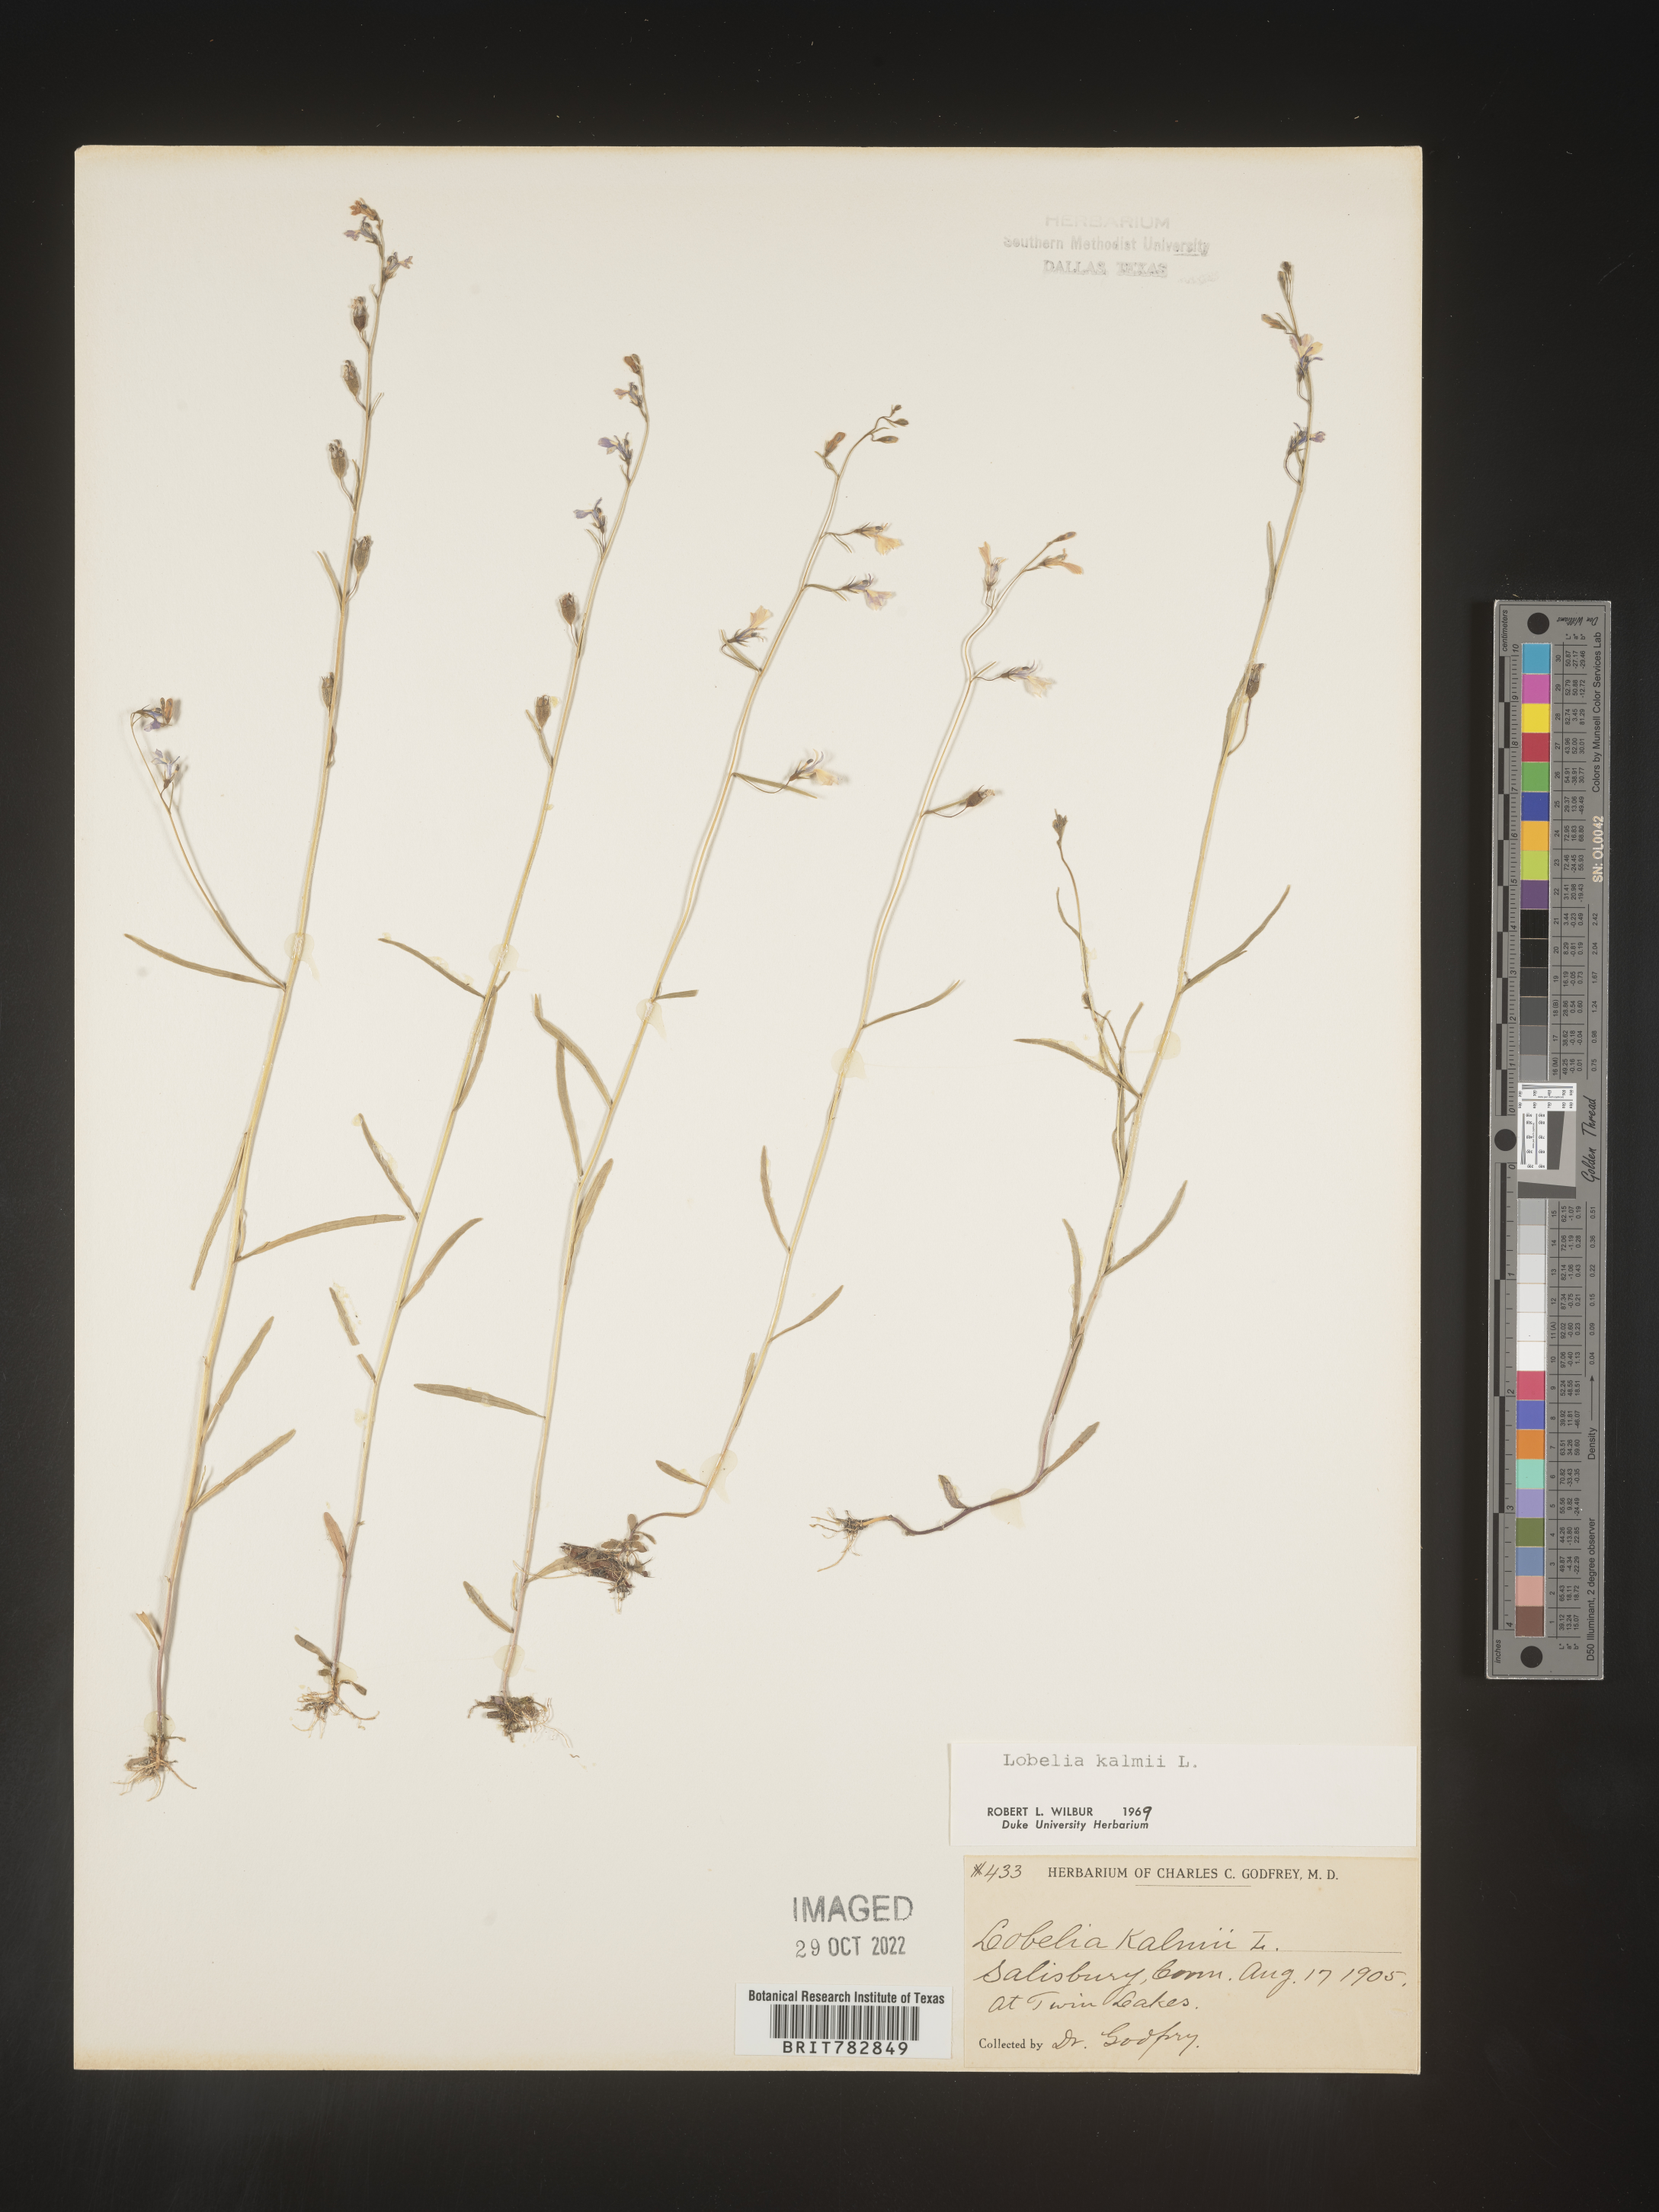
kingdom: Plantae
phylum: Tracheophyta
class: Magnoliopsida
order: Asterales
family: Campanulaceae
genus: Lobelia
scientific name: Lobelia
